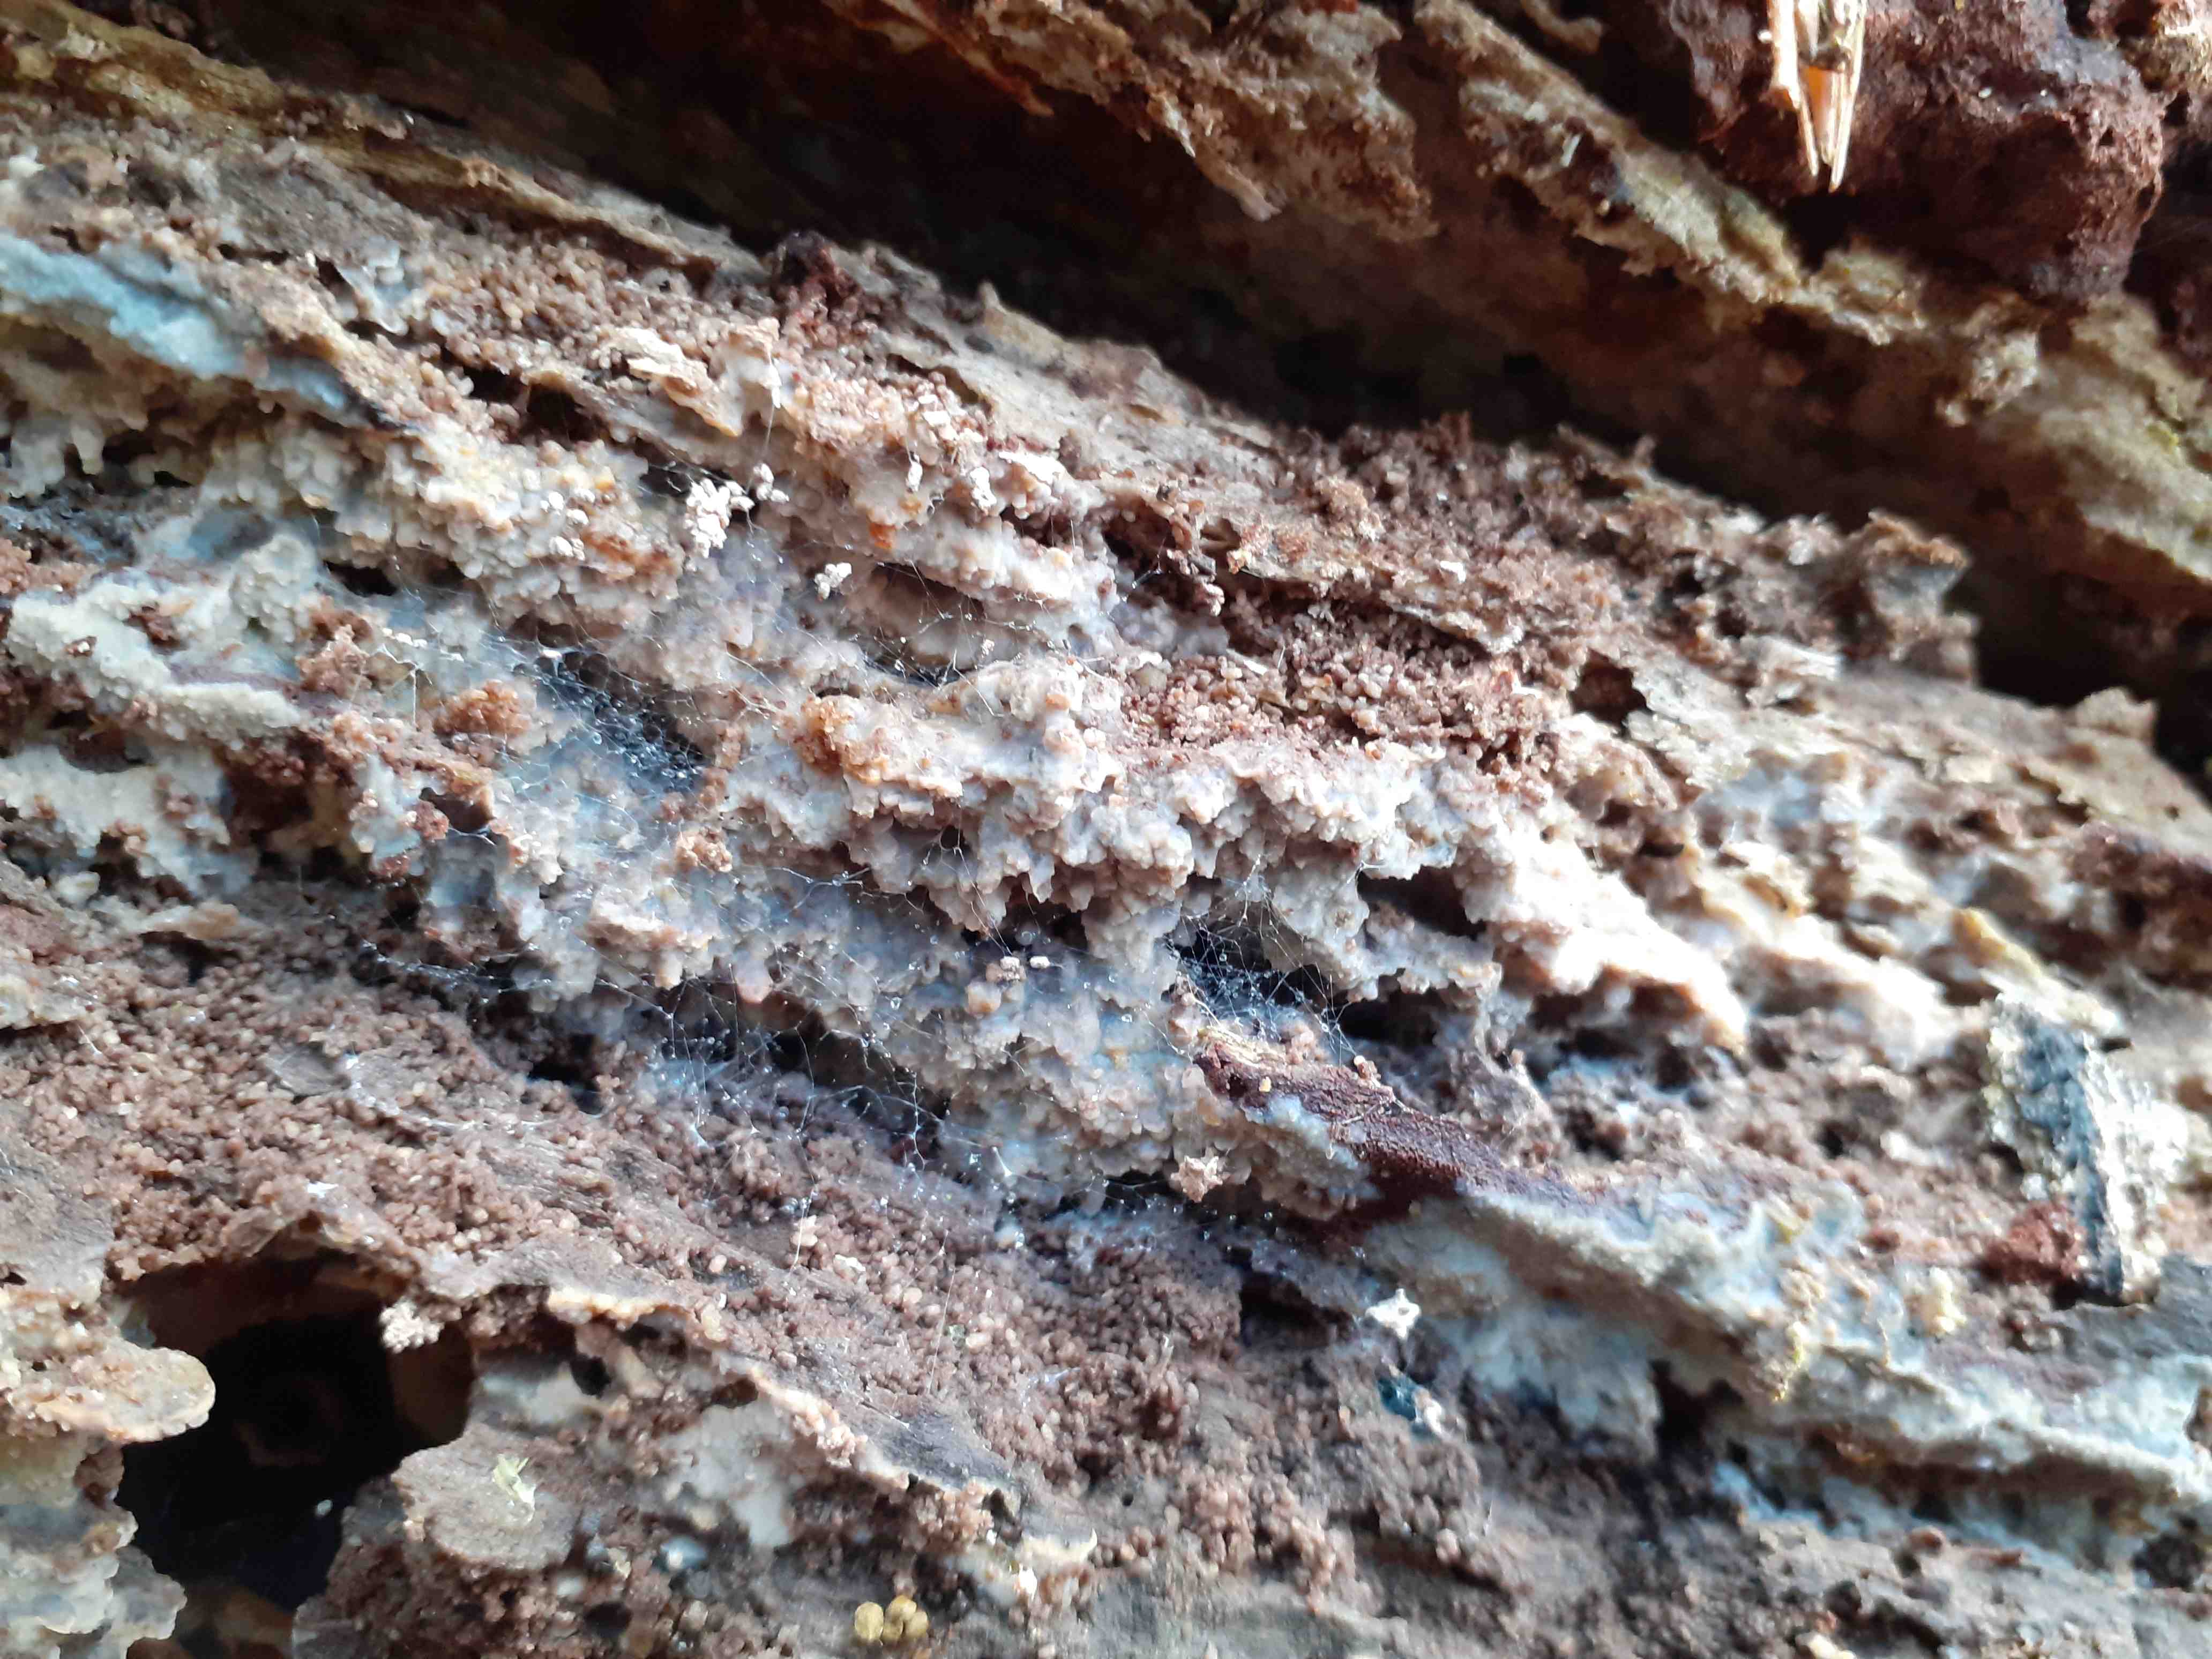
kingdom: Fungi
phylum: Basidiomycota
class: Agaricomycetes
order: Polyporales
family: Meruliaceae
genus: Cytidiella
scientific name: Cytidiella albida
